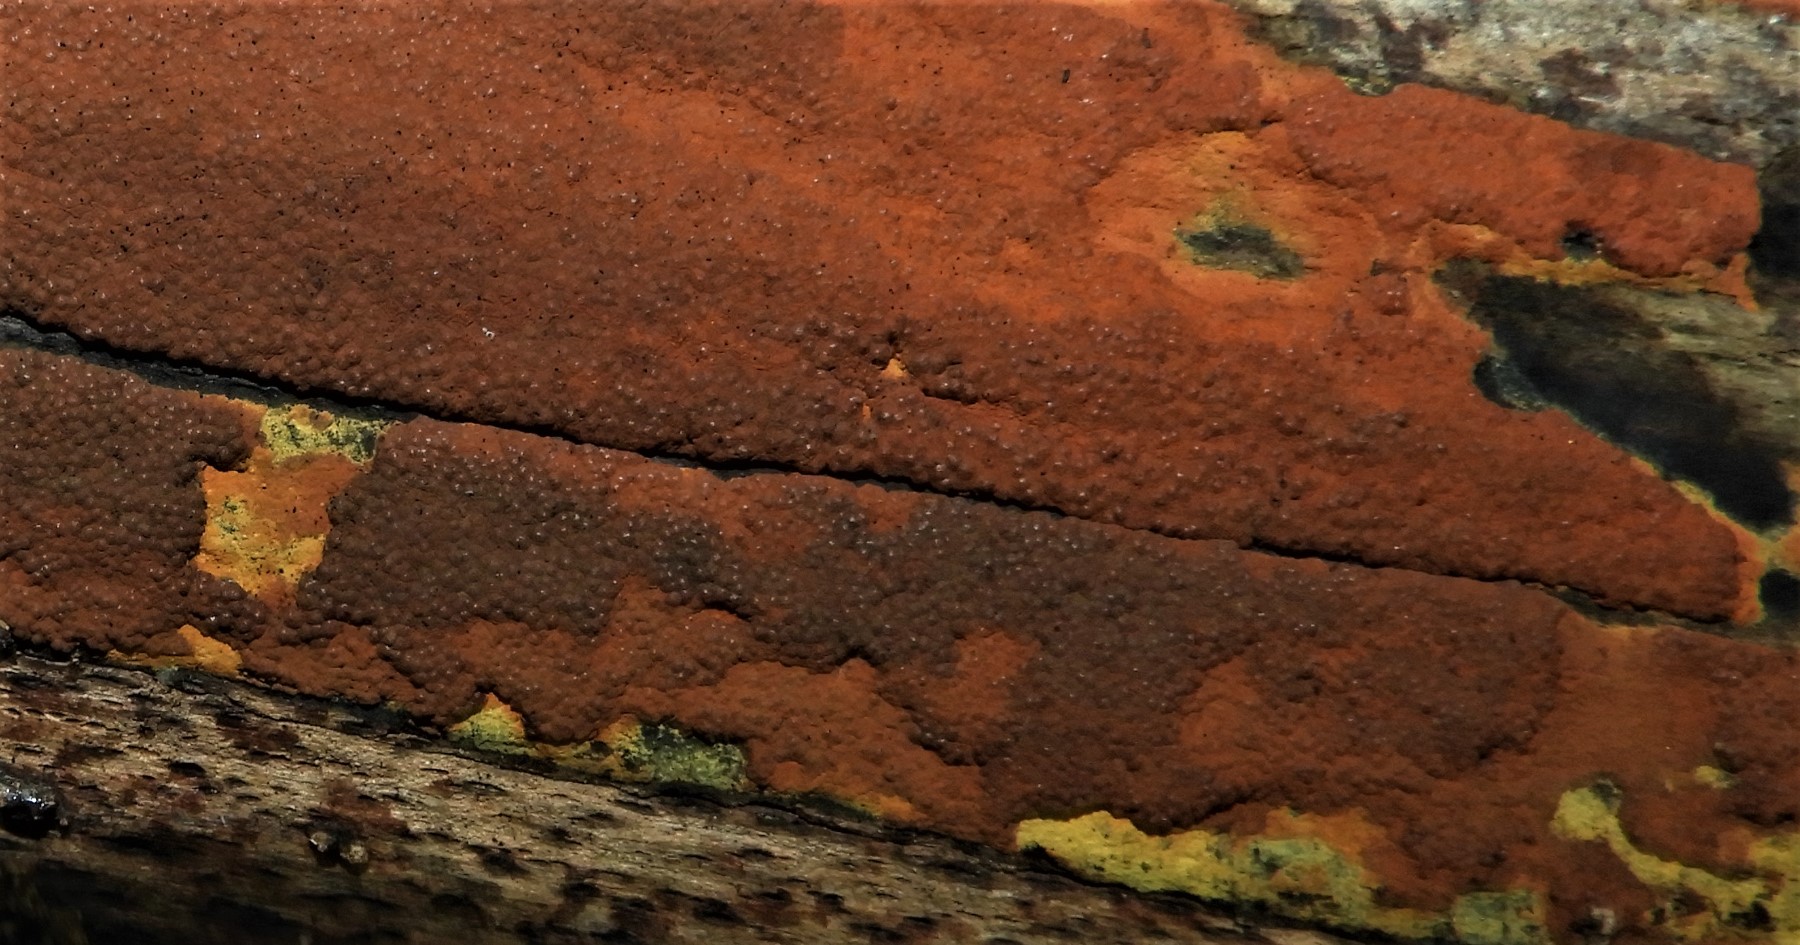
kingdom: Fungi
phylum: Ascomycota
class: Sordariomycetes
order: Xylariales
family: Hypoxylaceae
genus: Hypoxylon
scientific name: Hypoxylon rubiginosum
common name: rustfarvet kulbær
